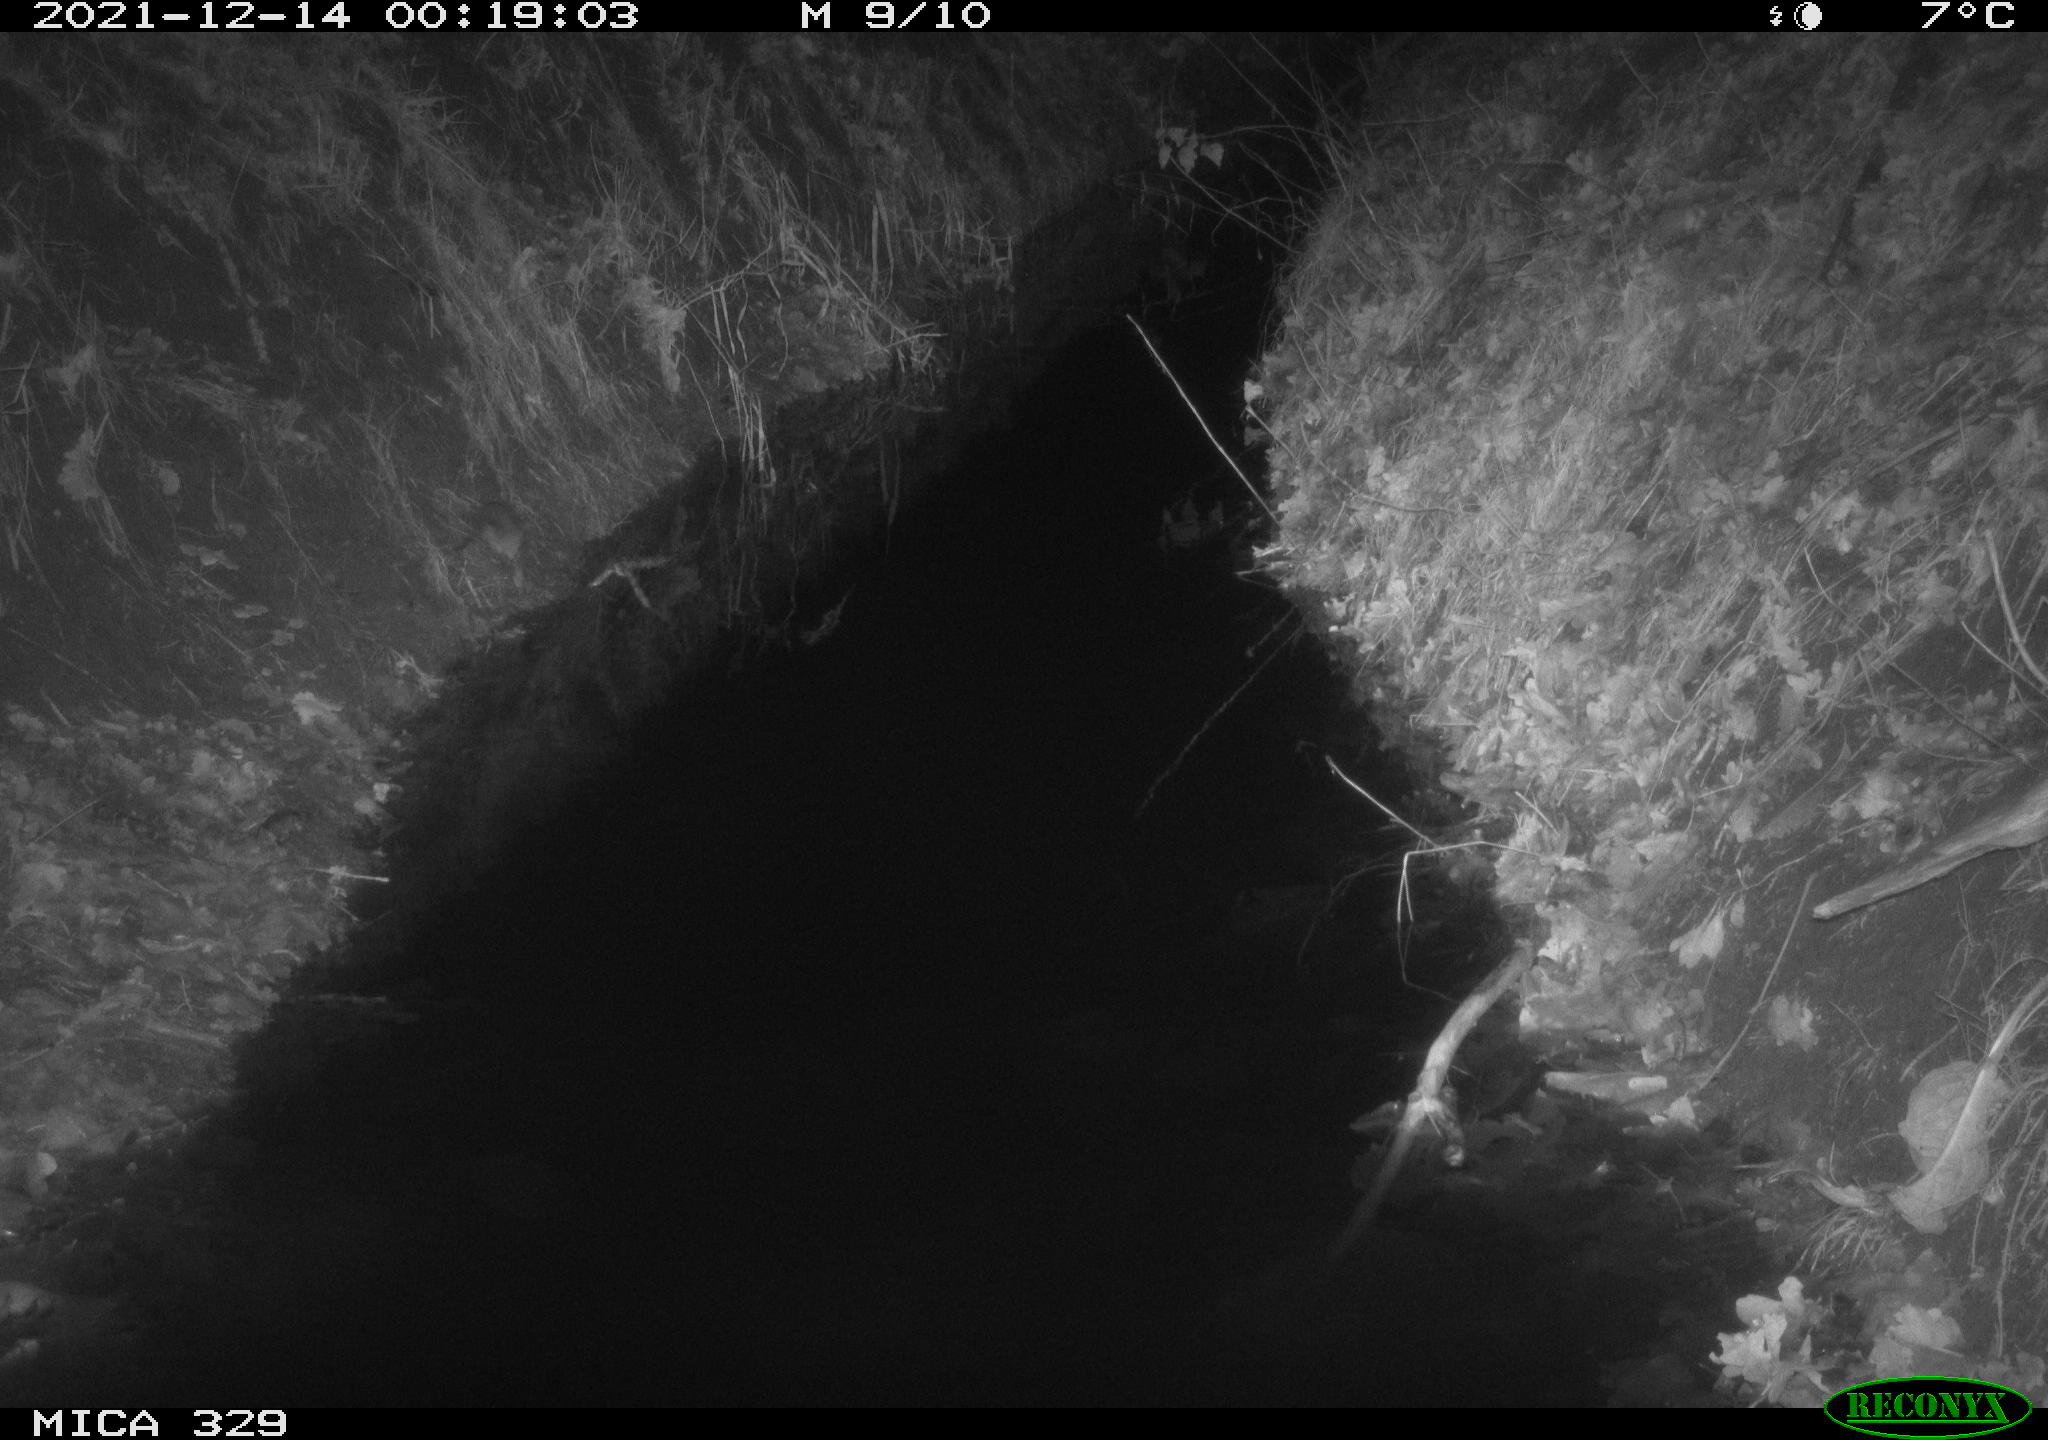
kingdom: Animalia
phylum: Chordata
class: Mammalia
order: Rodentia
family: Muridae
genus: Rattus
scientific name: Rattus norvegicus
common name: Brown rat
